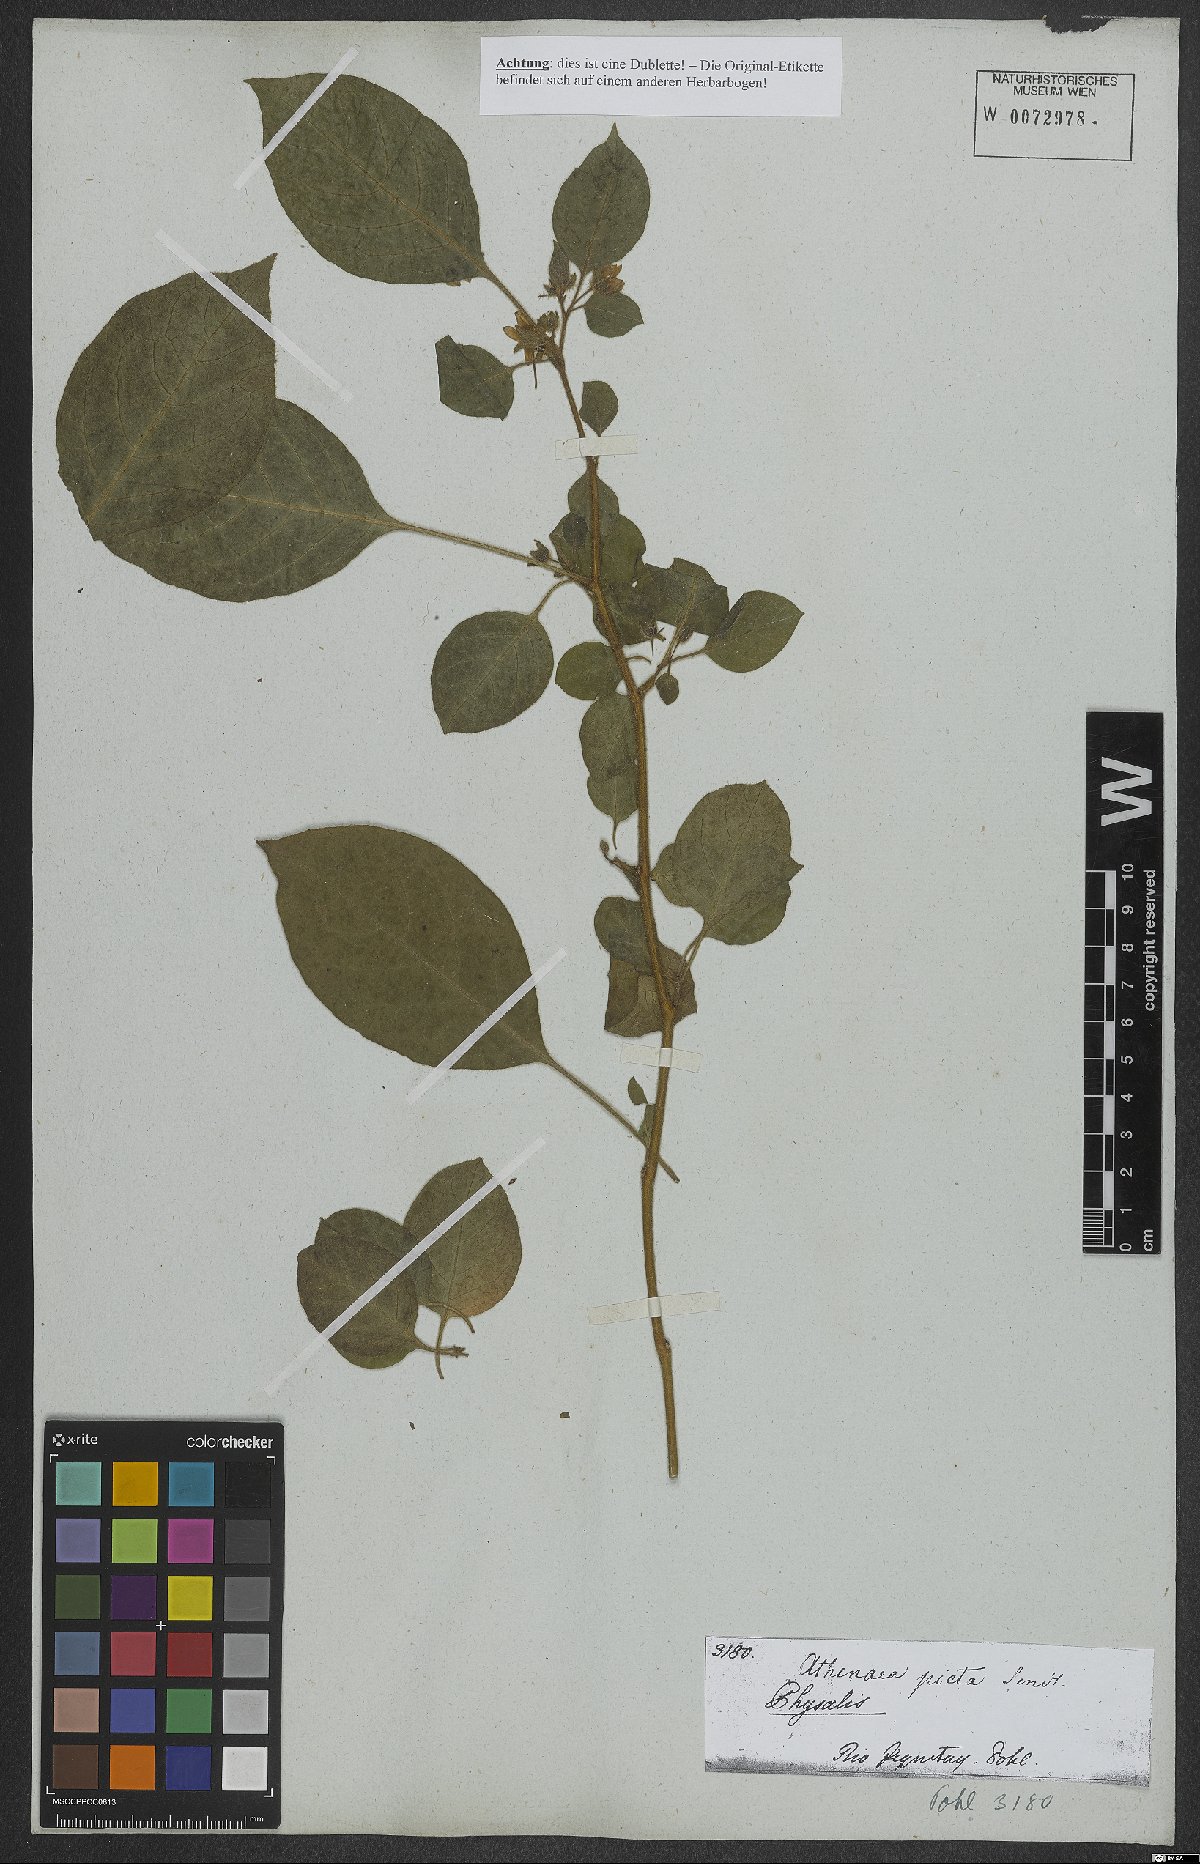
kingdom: Plantae
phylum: Tracheophyta
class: Magnoliopsida
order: Solanales
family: Solanaceae
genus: Physalis
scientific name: Physalis
